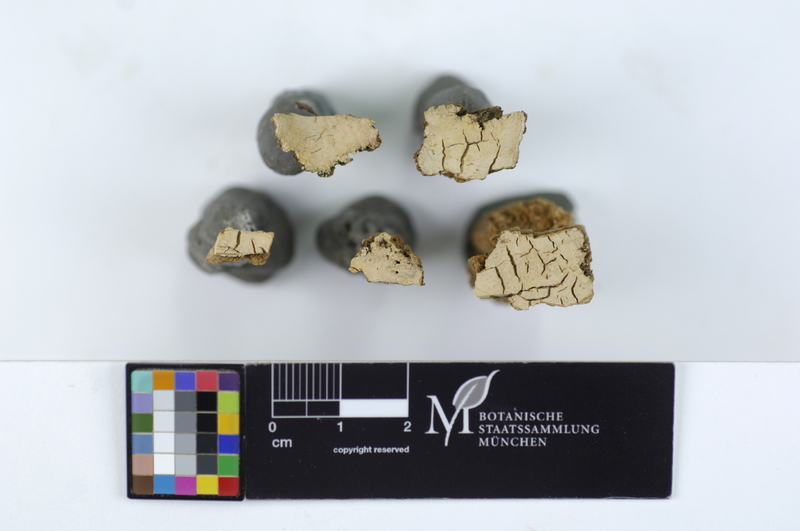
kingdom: Fungi
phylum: Basidiomycota
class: Agaricomycetes
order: Russulales
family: Stereaceae
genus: Conferticium
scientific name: Conferticium ochraceum
